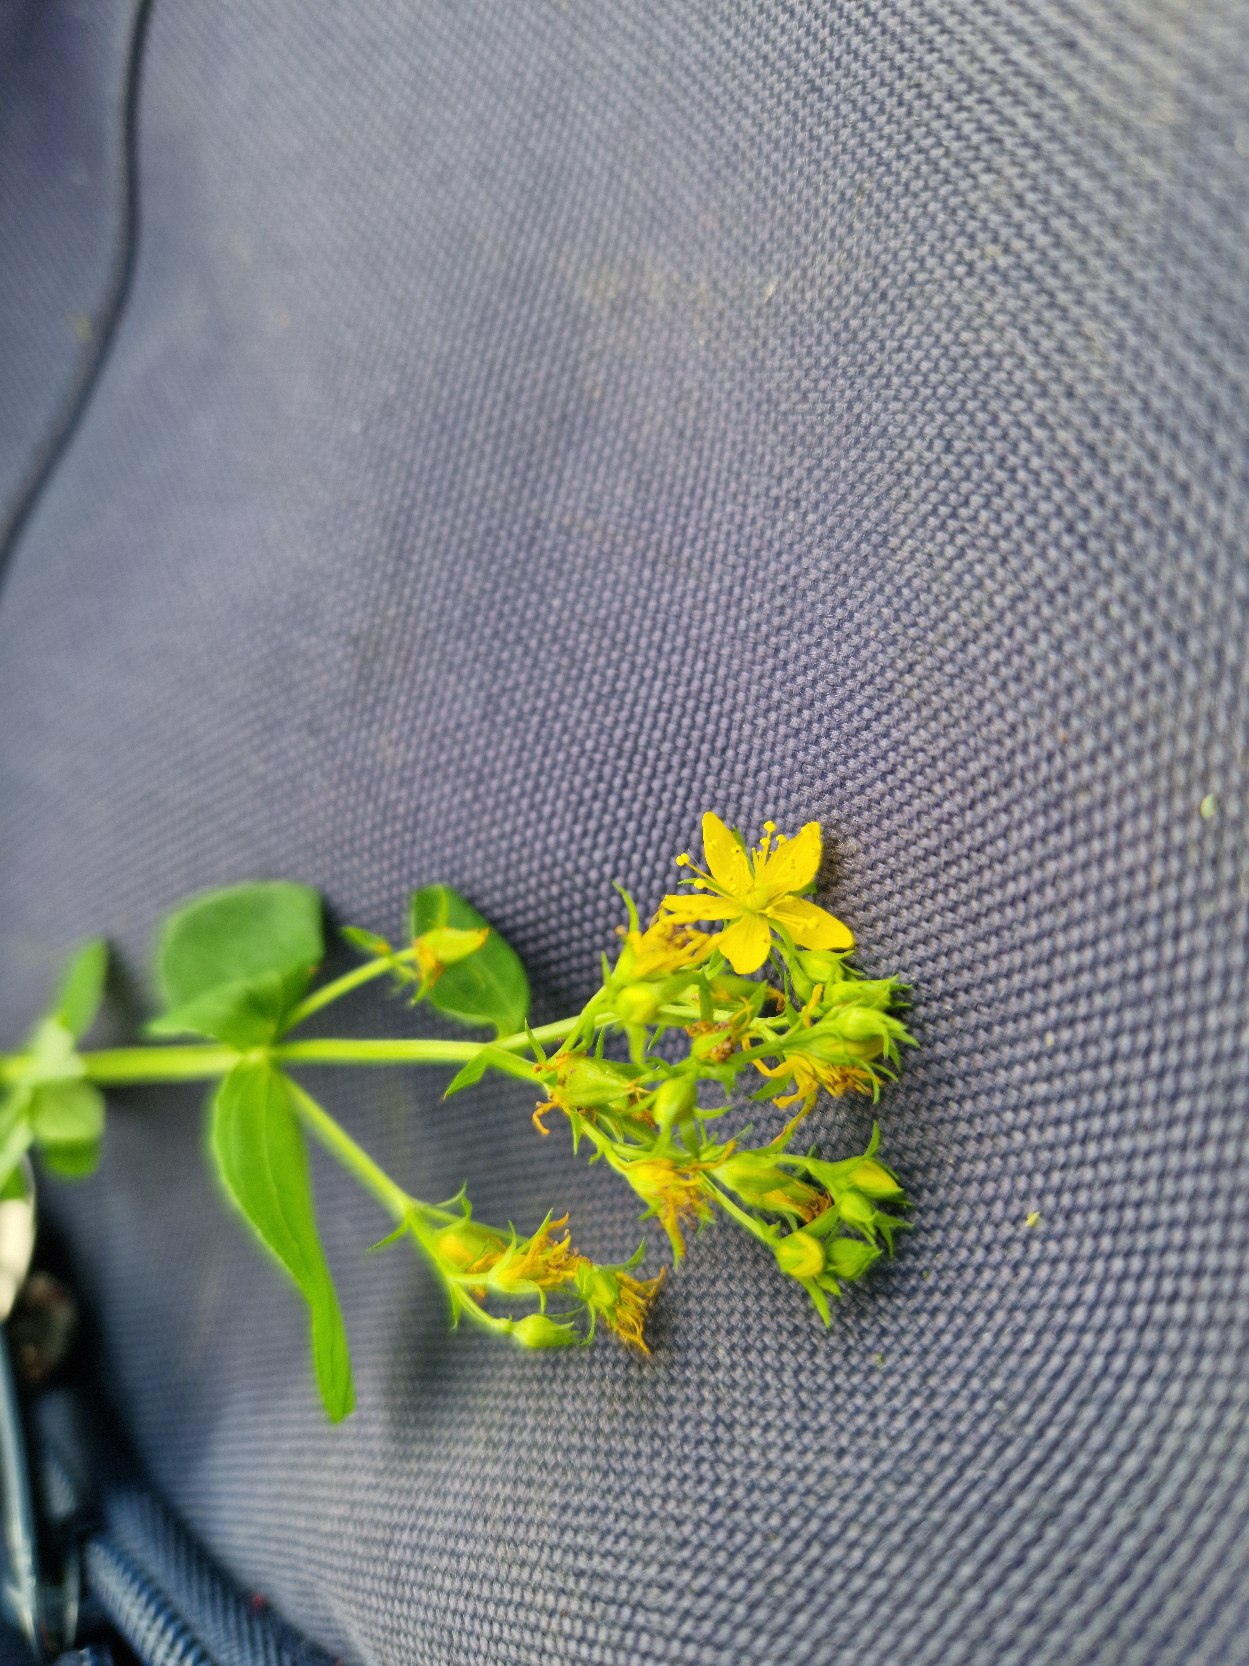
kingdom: Plantae
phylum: Tracheophyta
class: Magnoliopsida
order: Malpighiales
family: Hypericaceae
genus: Hypericum
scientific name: Hypericum
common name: Perikonslægten
